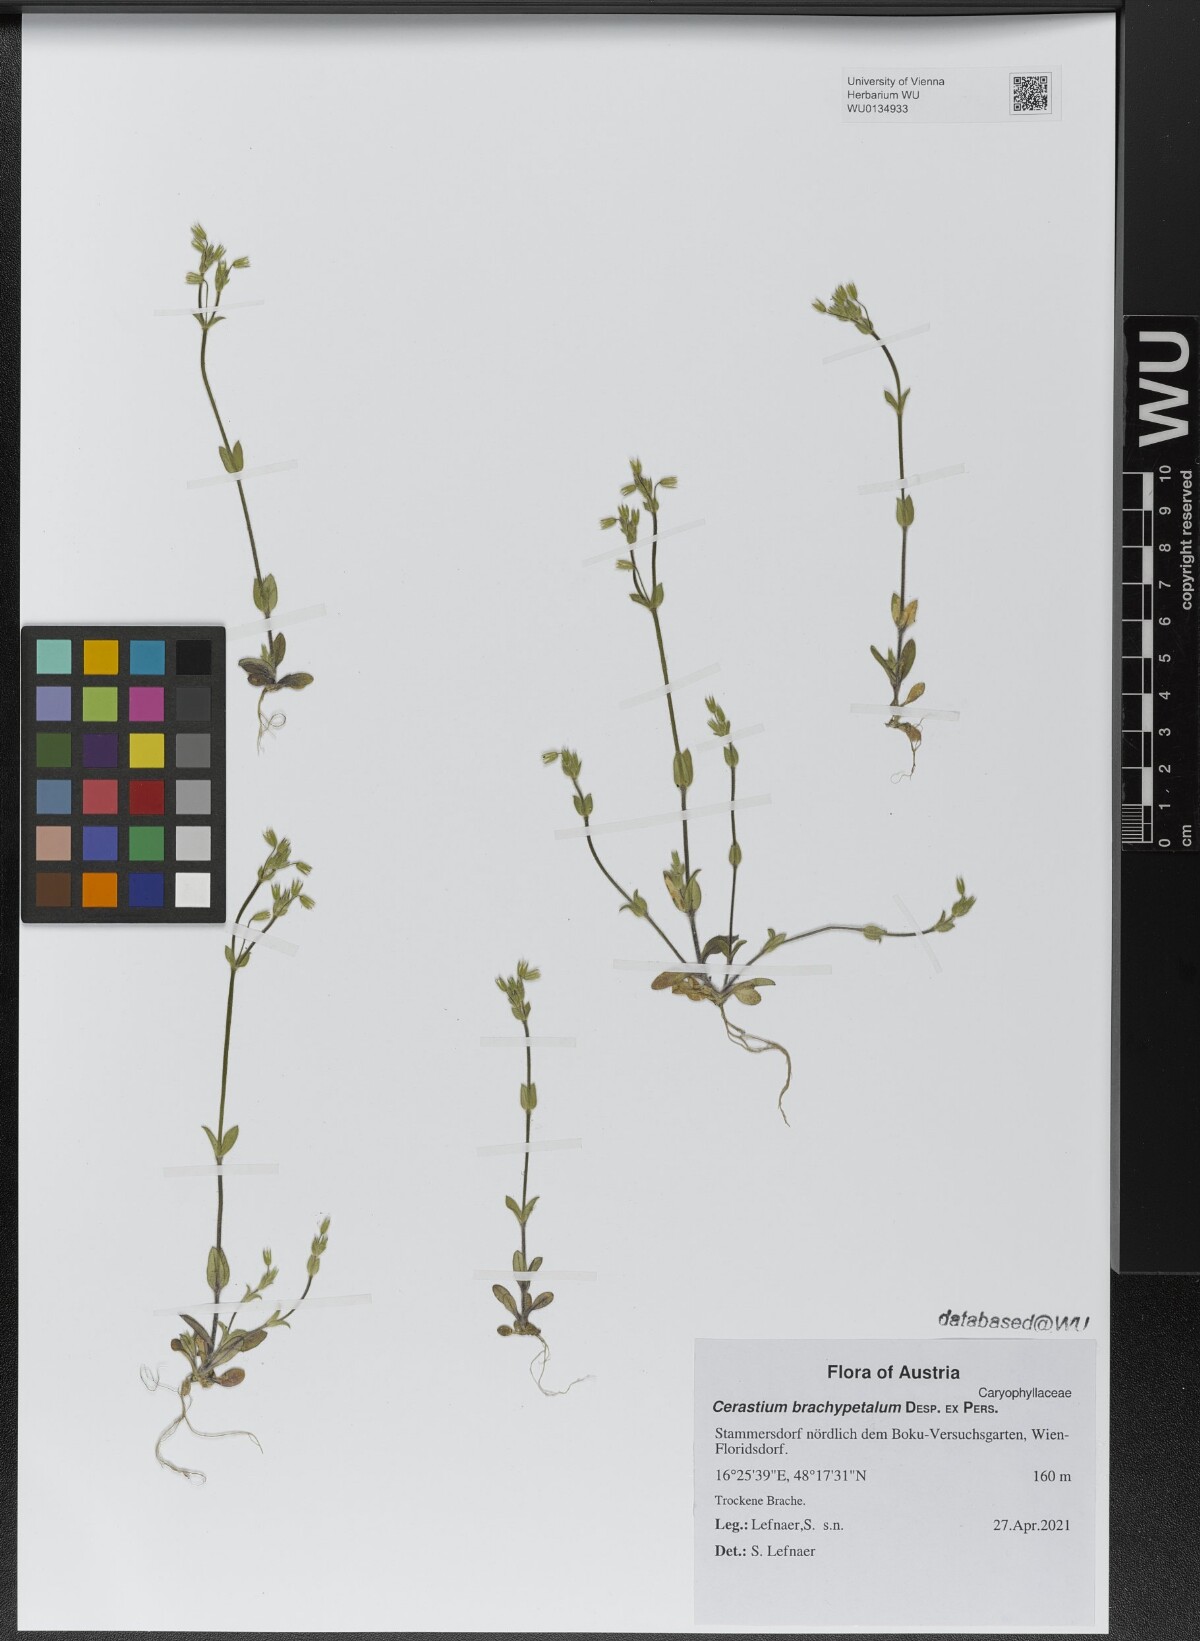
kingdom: Plantae
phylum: Tracheophyta
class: Magnoliopsida
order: Caryophyllales
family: Caryophyllaceae
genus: Cerastium
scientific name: Cerastium brachypetalum
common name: Grey mouse-ear
